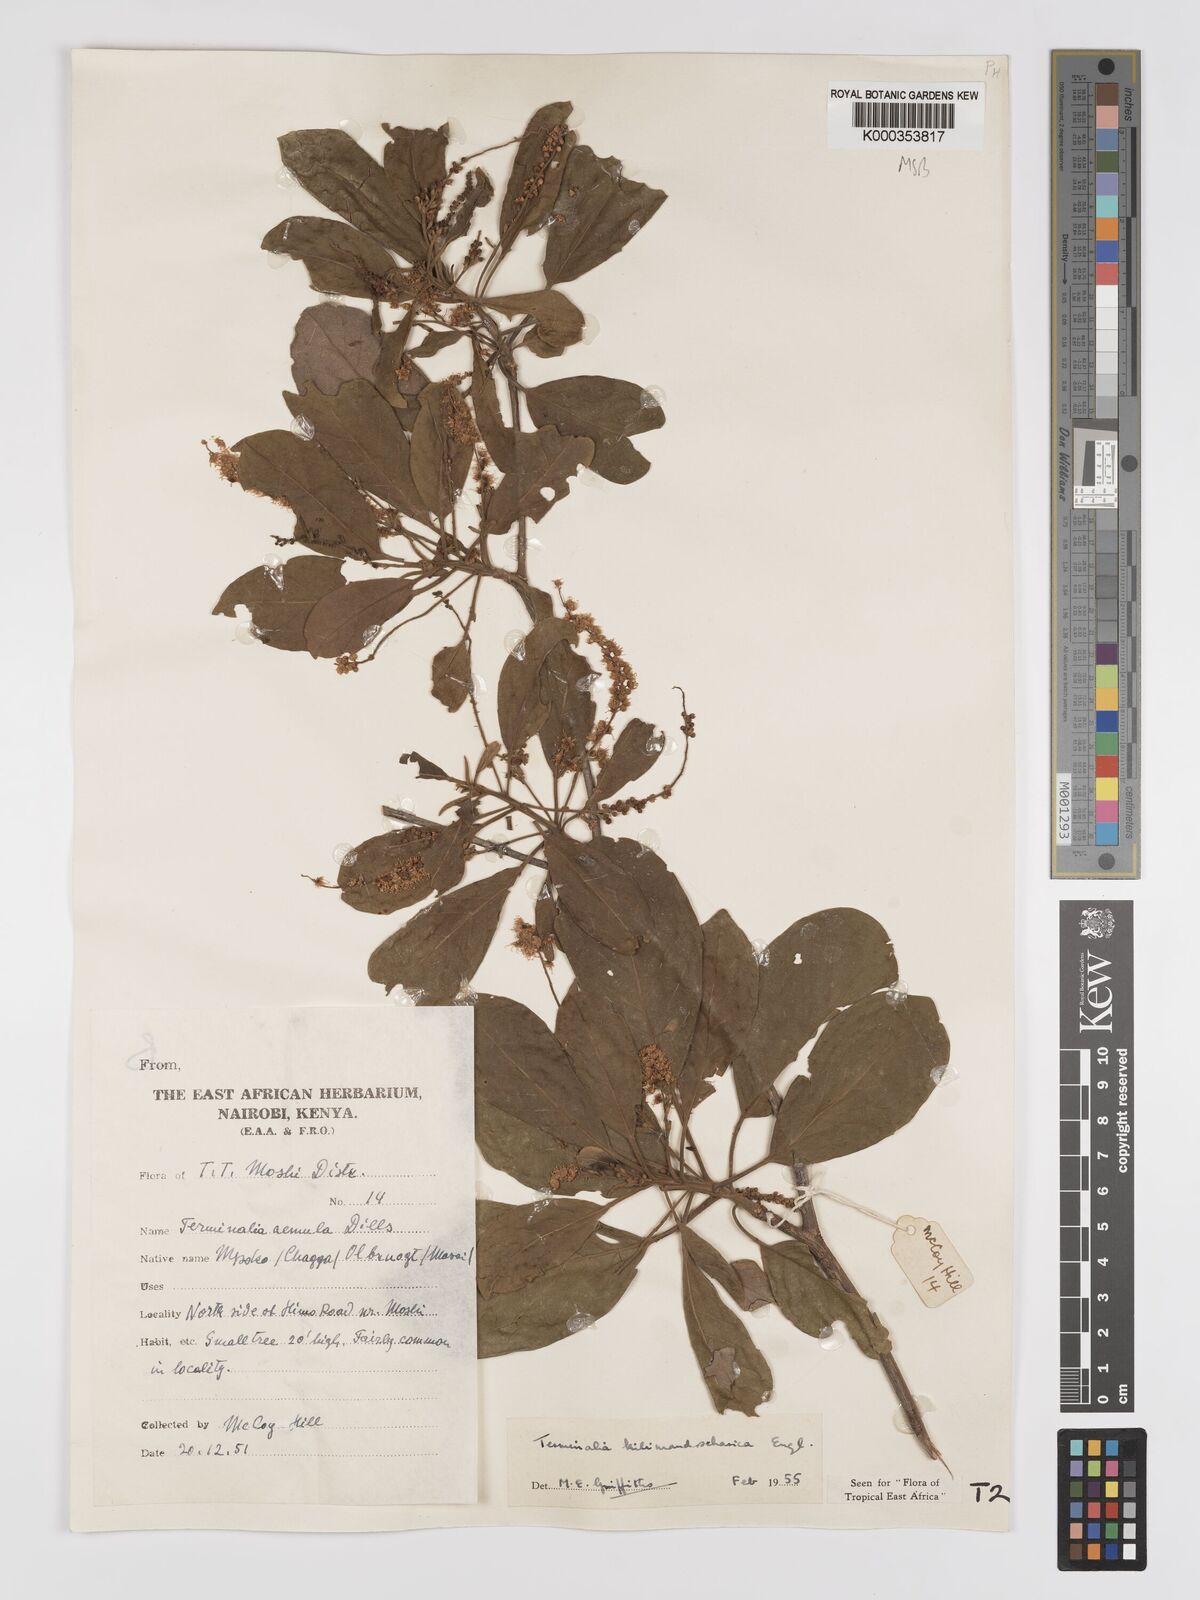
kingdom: Plantae
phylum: Tracheophyta
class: Magnoliopsida
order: Myrtales
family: Combretaceae
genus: Terminalia
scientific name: Terminalia kilimandscharica
